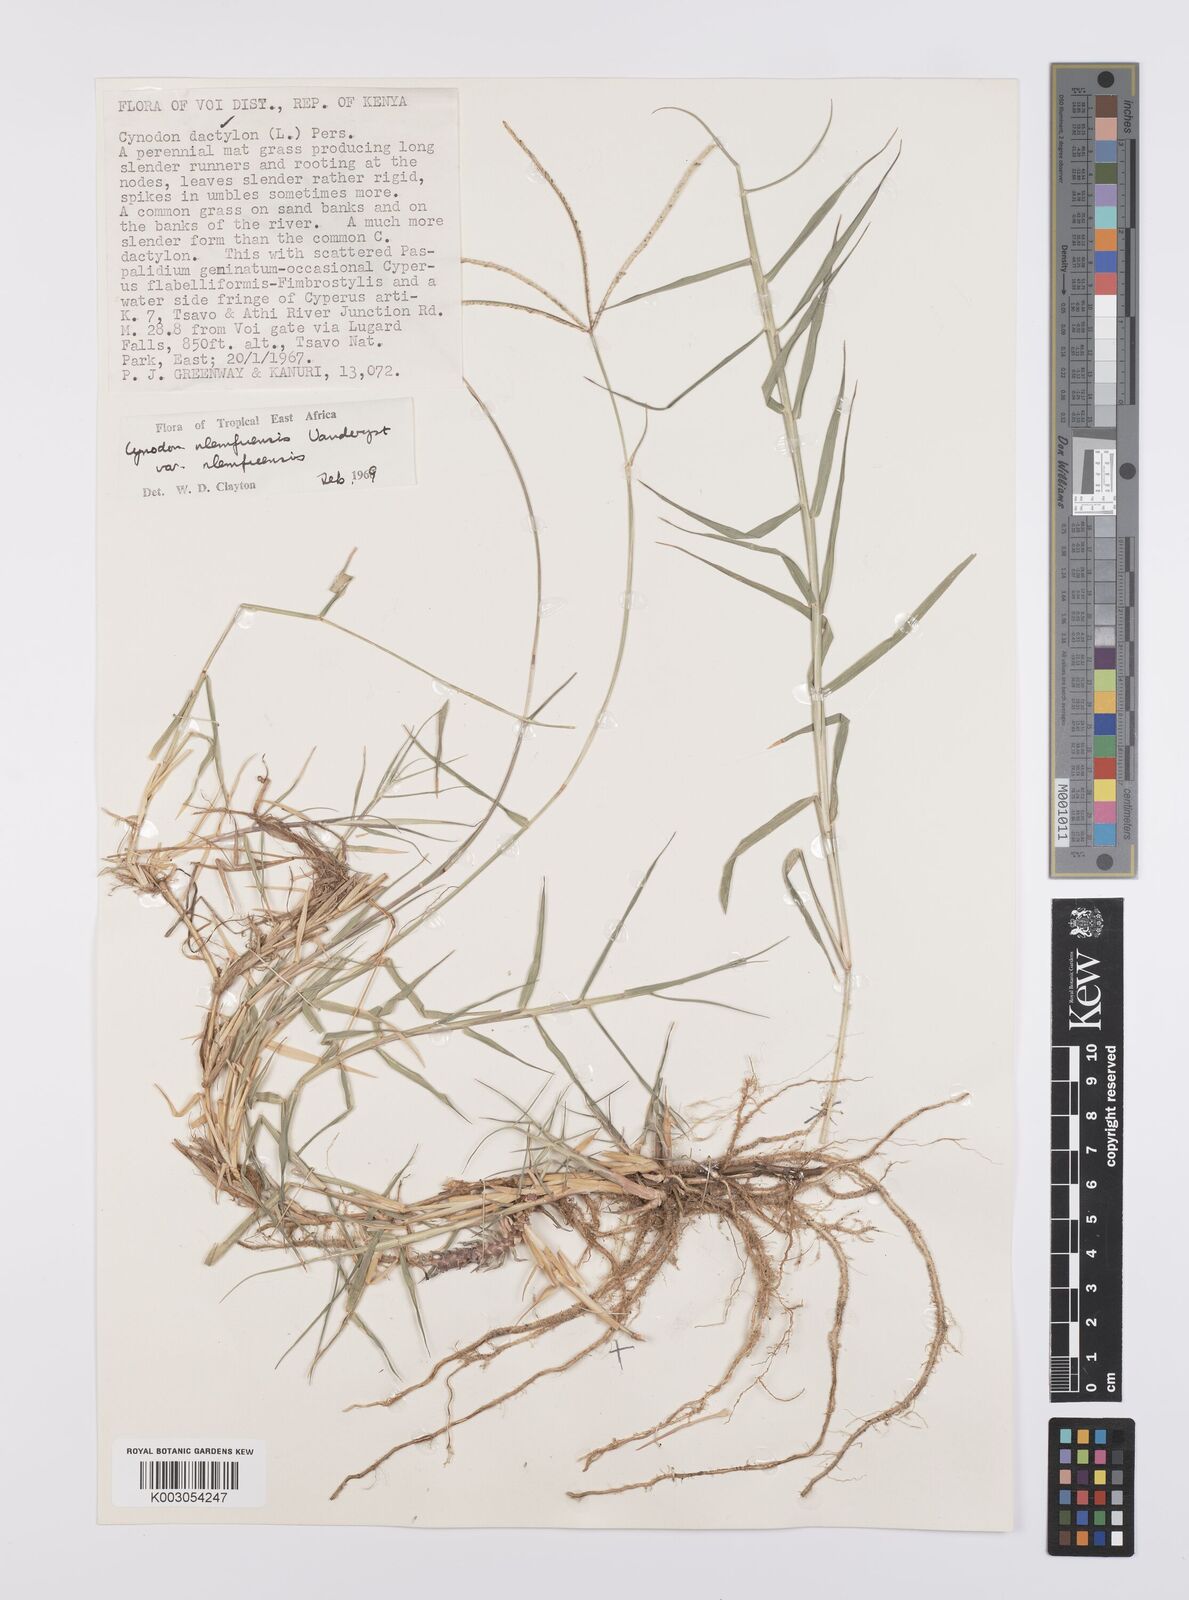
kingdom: Plantae
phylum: Tracheophyta
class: Liliopsida
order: Poales
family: Poaceae
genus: Cynodon
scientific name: Cynodon nlemfuensis
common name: African bermudagrass
